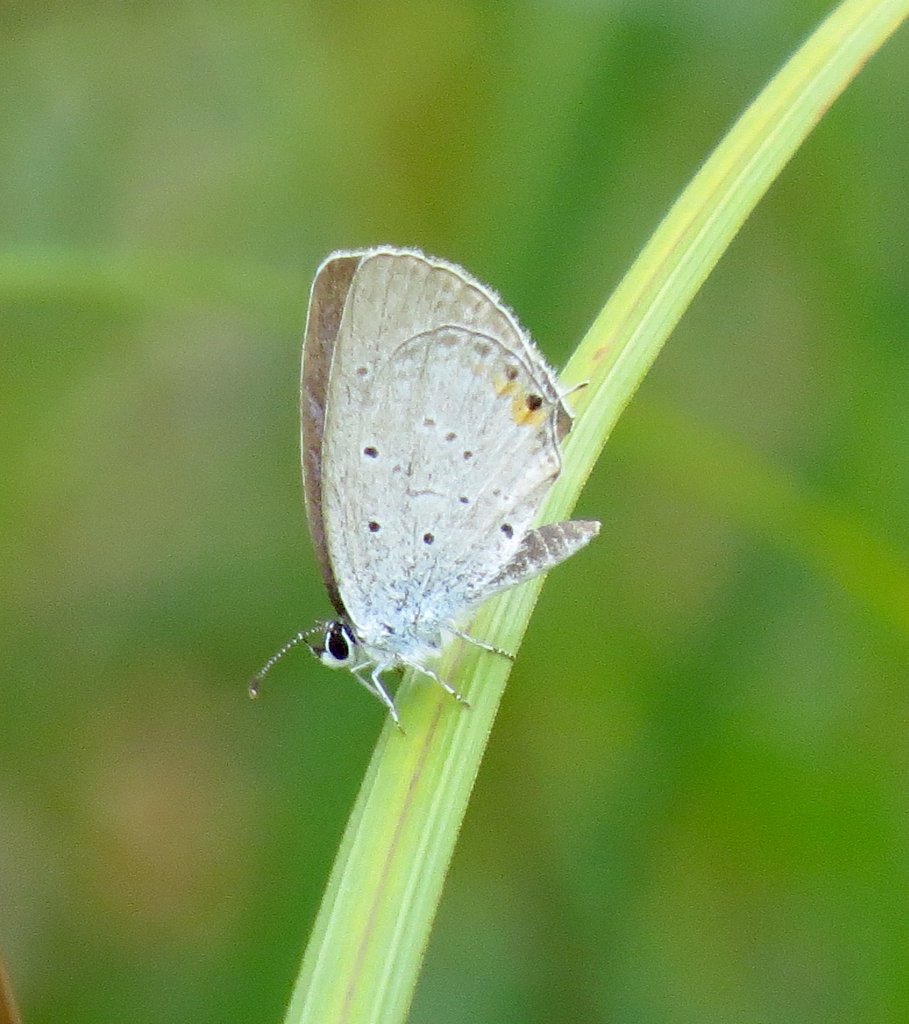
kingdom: Animalia
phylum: Arthropoda
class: Insecta
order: Lepidoptera
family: Lycaenidae
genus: Elkalyce
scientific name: Elkalyce comyntas
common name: Eastern Tailed-Blue
